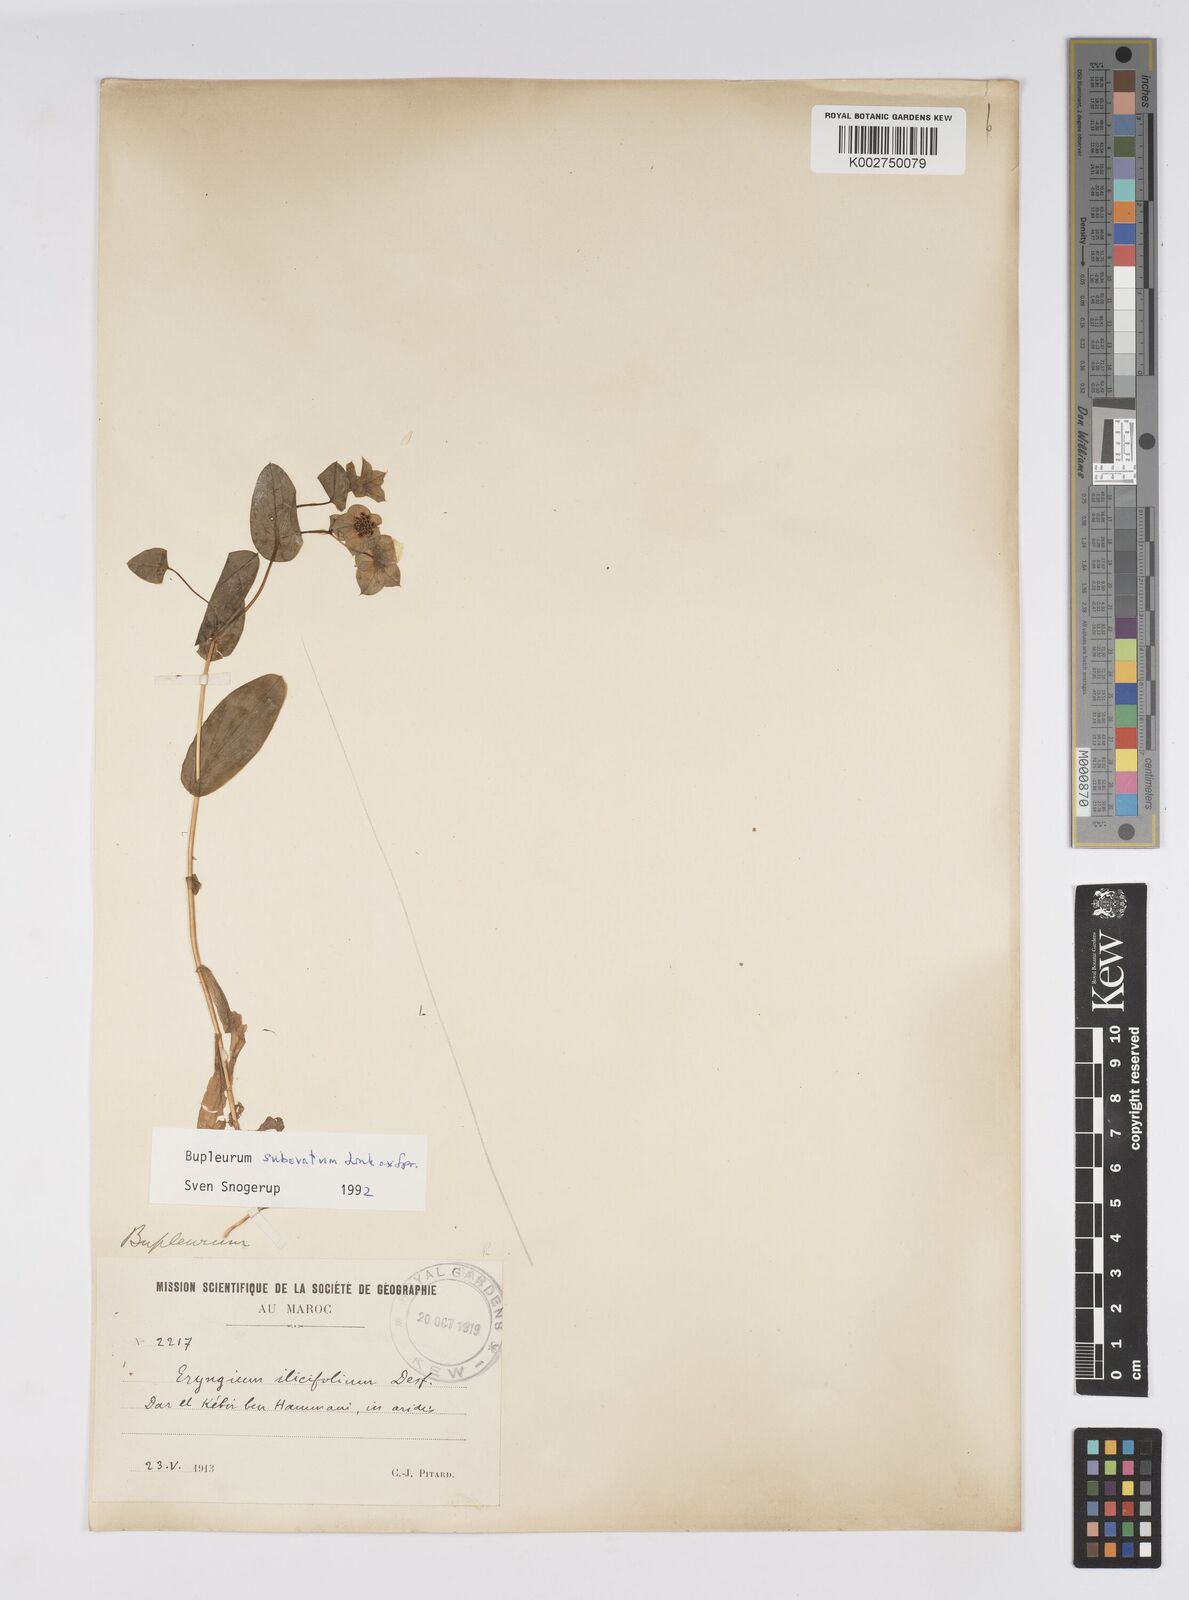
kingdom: Plantae
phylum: Tracheophyta
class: Magnoliopsida
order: Apiales
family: Apiaceae
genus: Bupleurum
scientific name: Bupleurum subovatum
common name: False thorow-wax
